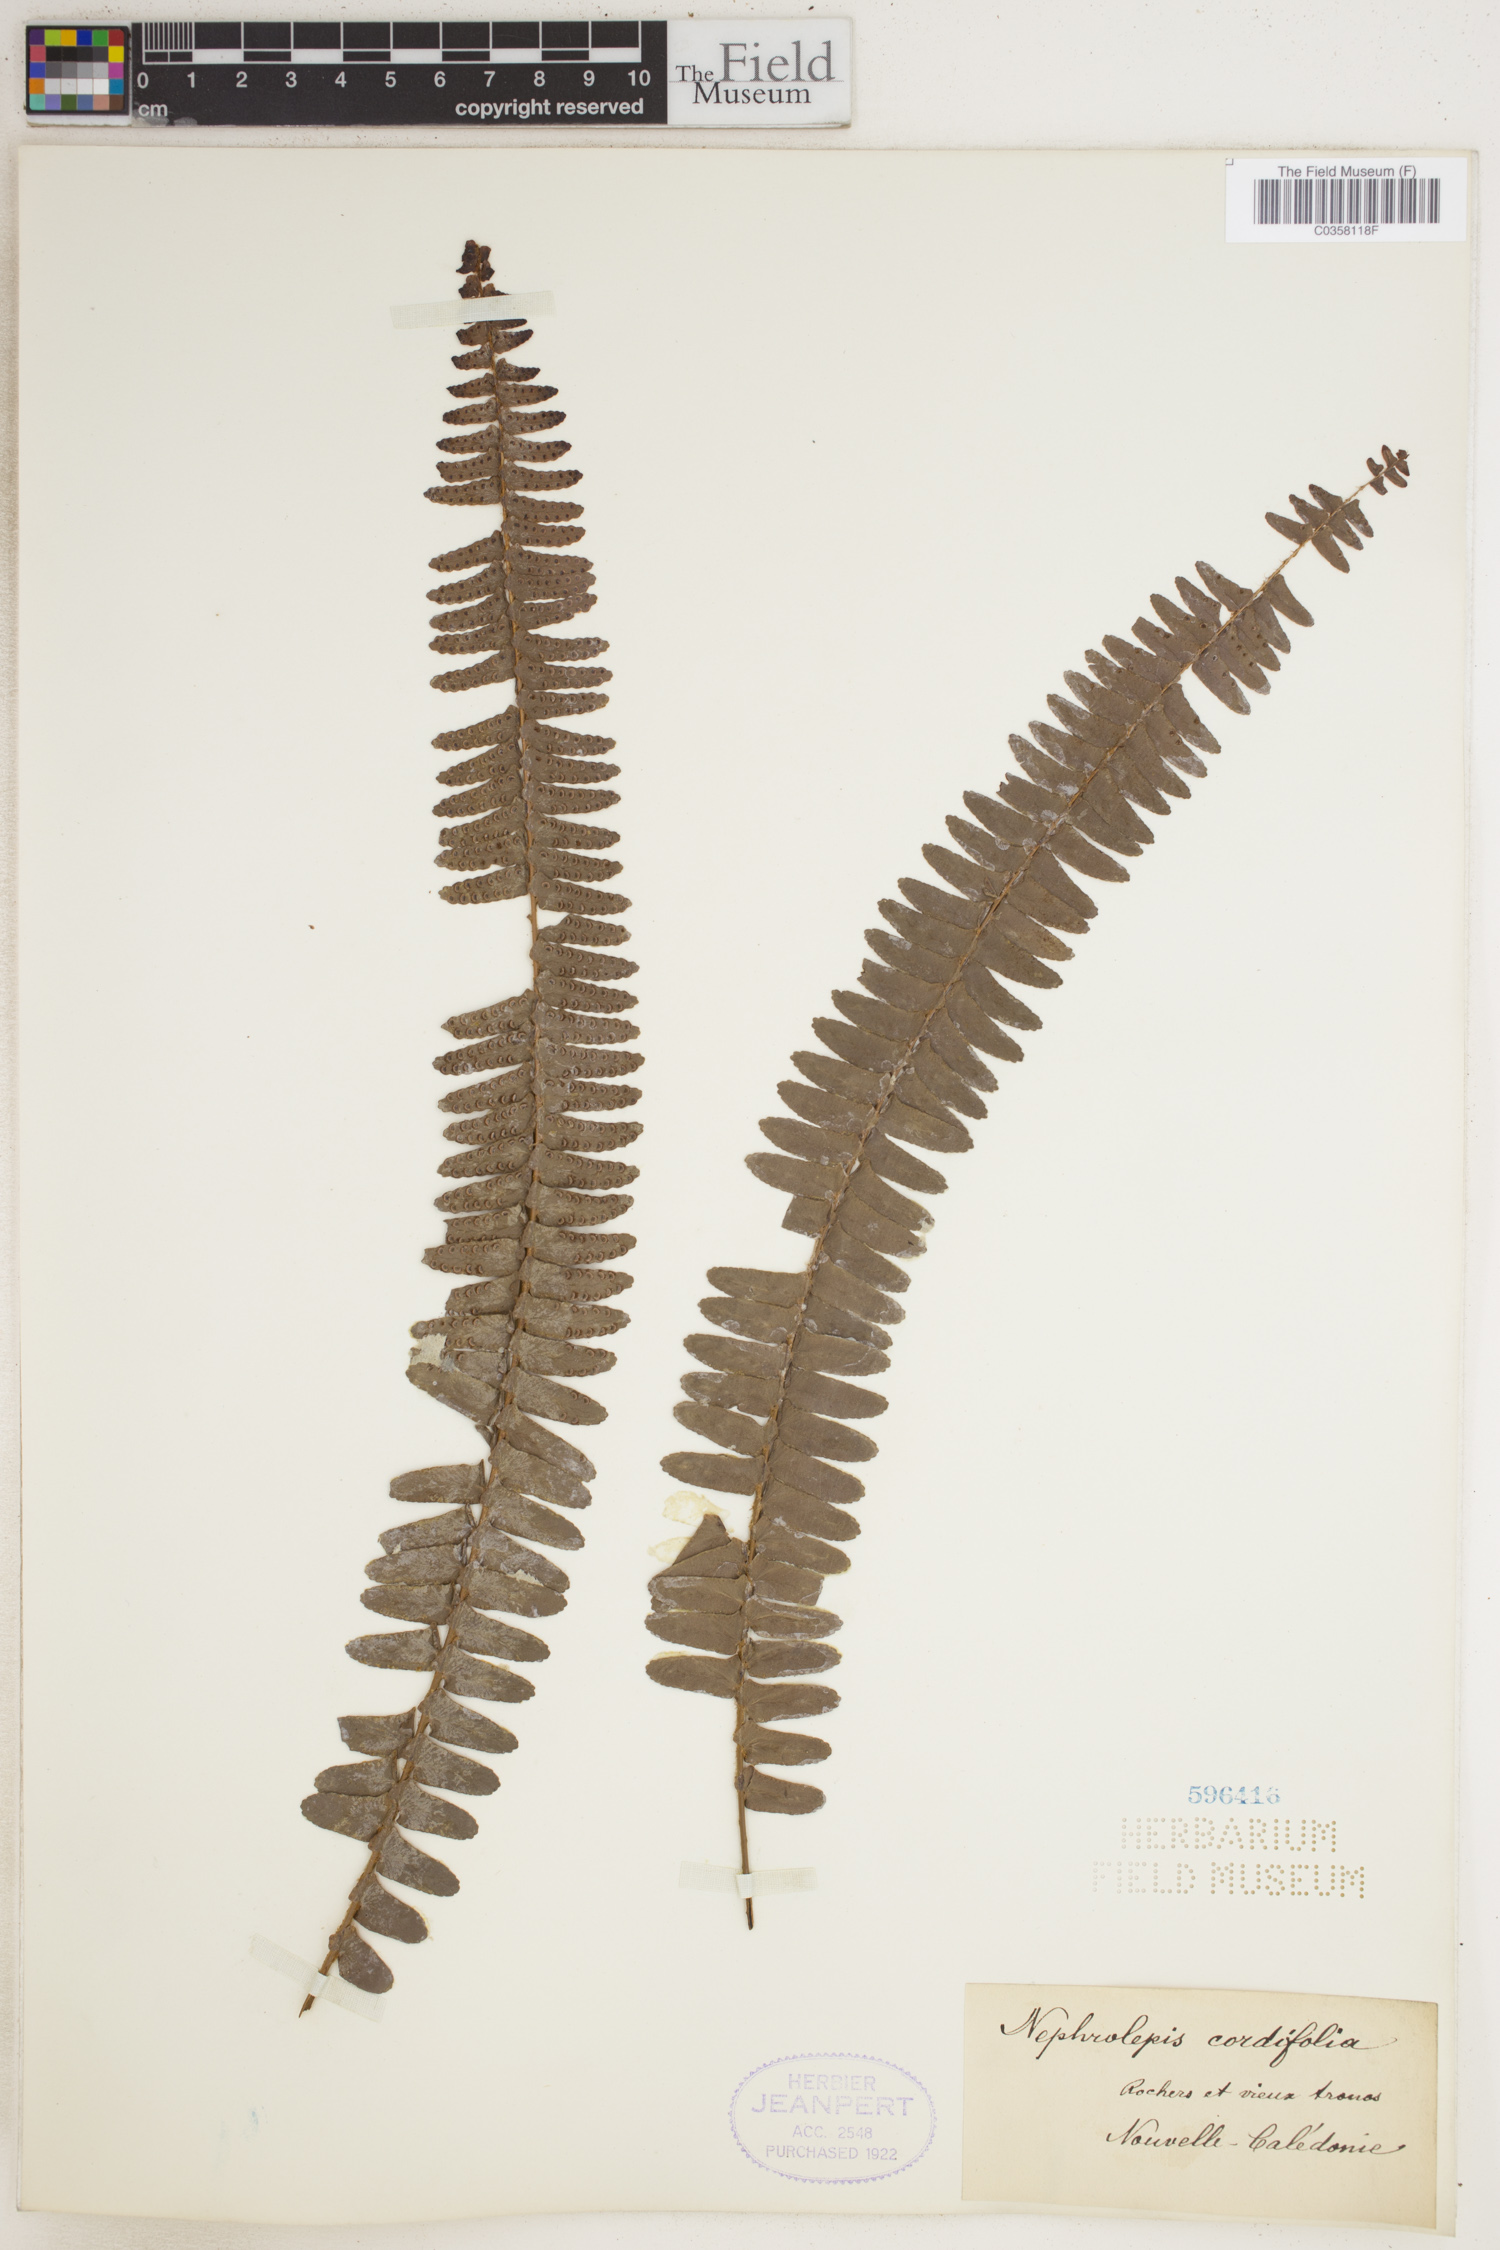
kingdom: Plantae
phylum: Tracheophyta
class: Polypodiopsida
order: Polypodiales
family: Nephrolepidaceae
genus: Nephrolepis
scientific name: Nephrolepis cordifolia
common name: Narrow swordfern
